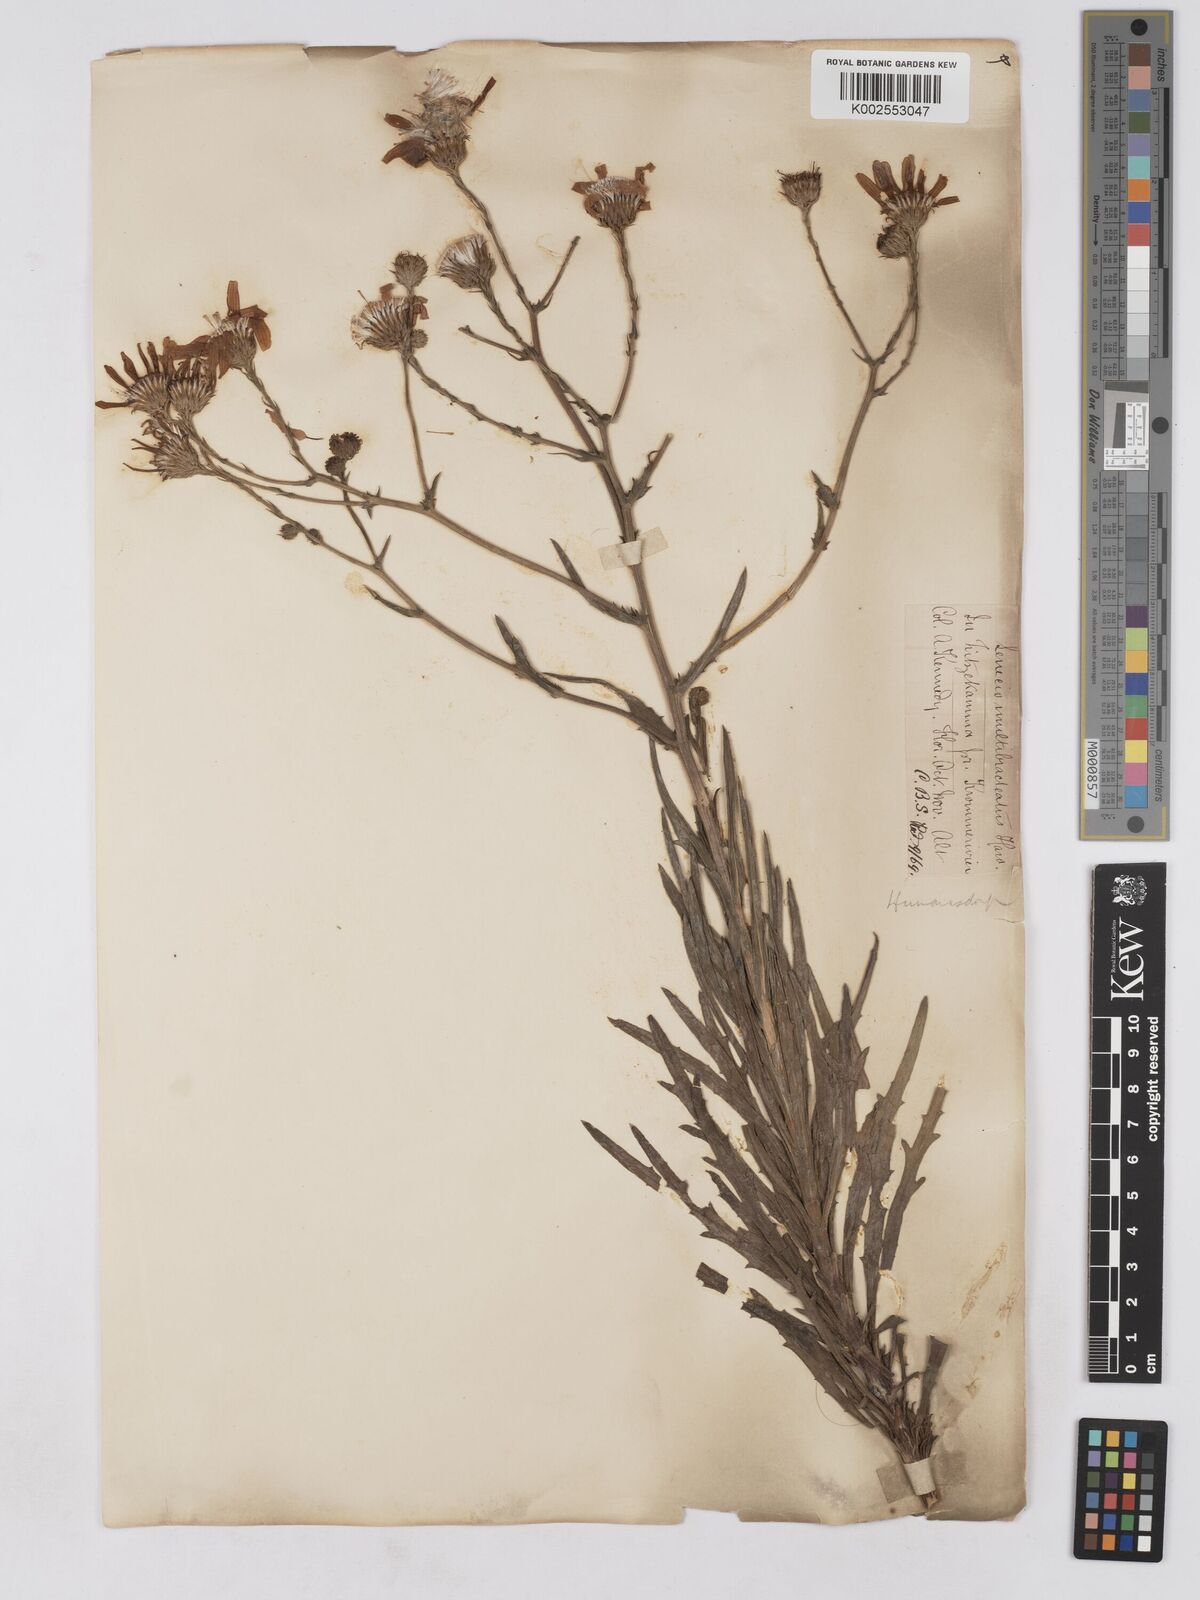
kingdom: Plantae
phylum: Tracheophyta
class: Magnoliopsida
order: Asterales
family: Asteraceae
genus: Senecio
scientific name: Senecio multibracteatus
